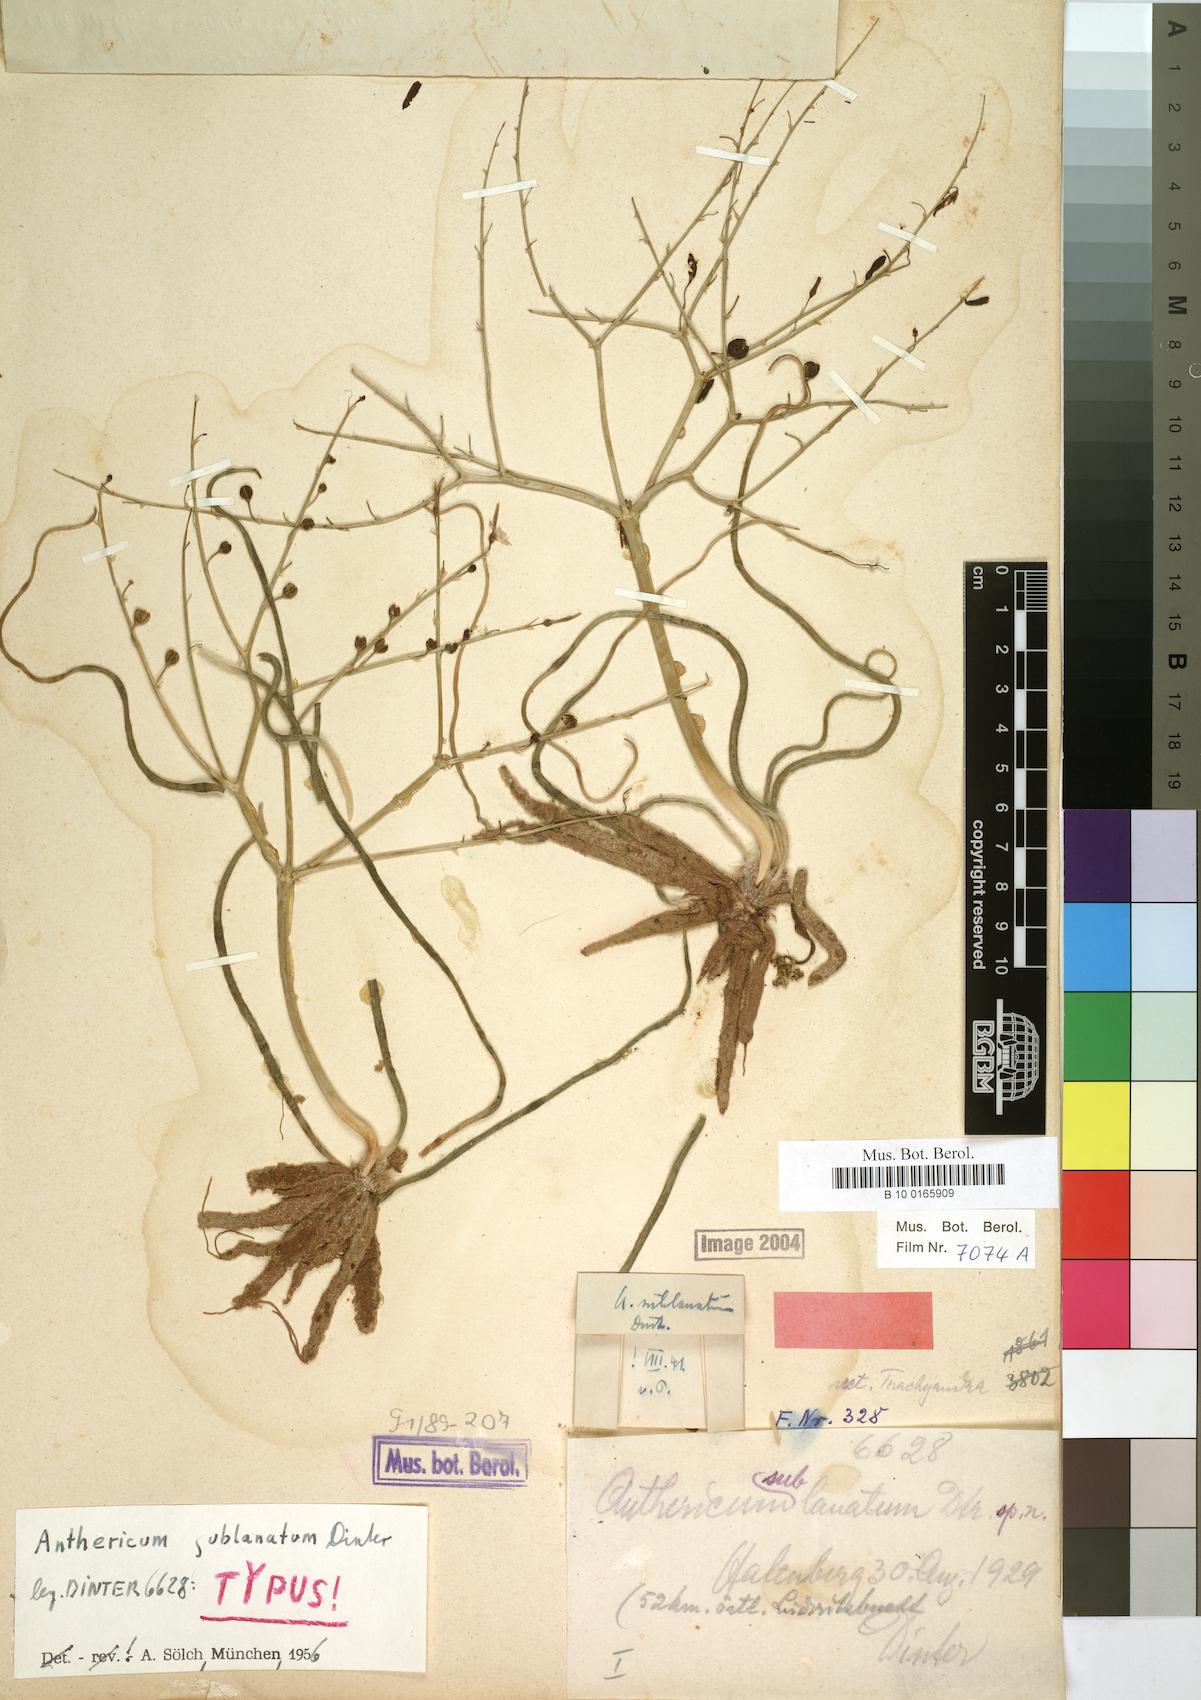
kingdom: Plantae
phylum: Tracheophyta
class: Liliopsida
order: Asparagales
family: Asphodelaceae
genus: Trachyandra
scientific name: Trachyandra lanata
